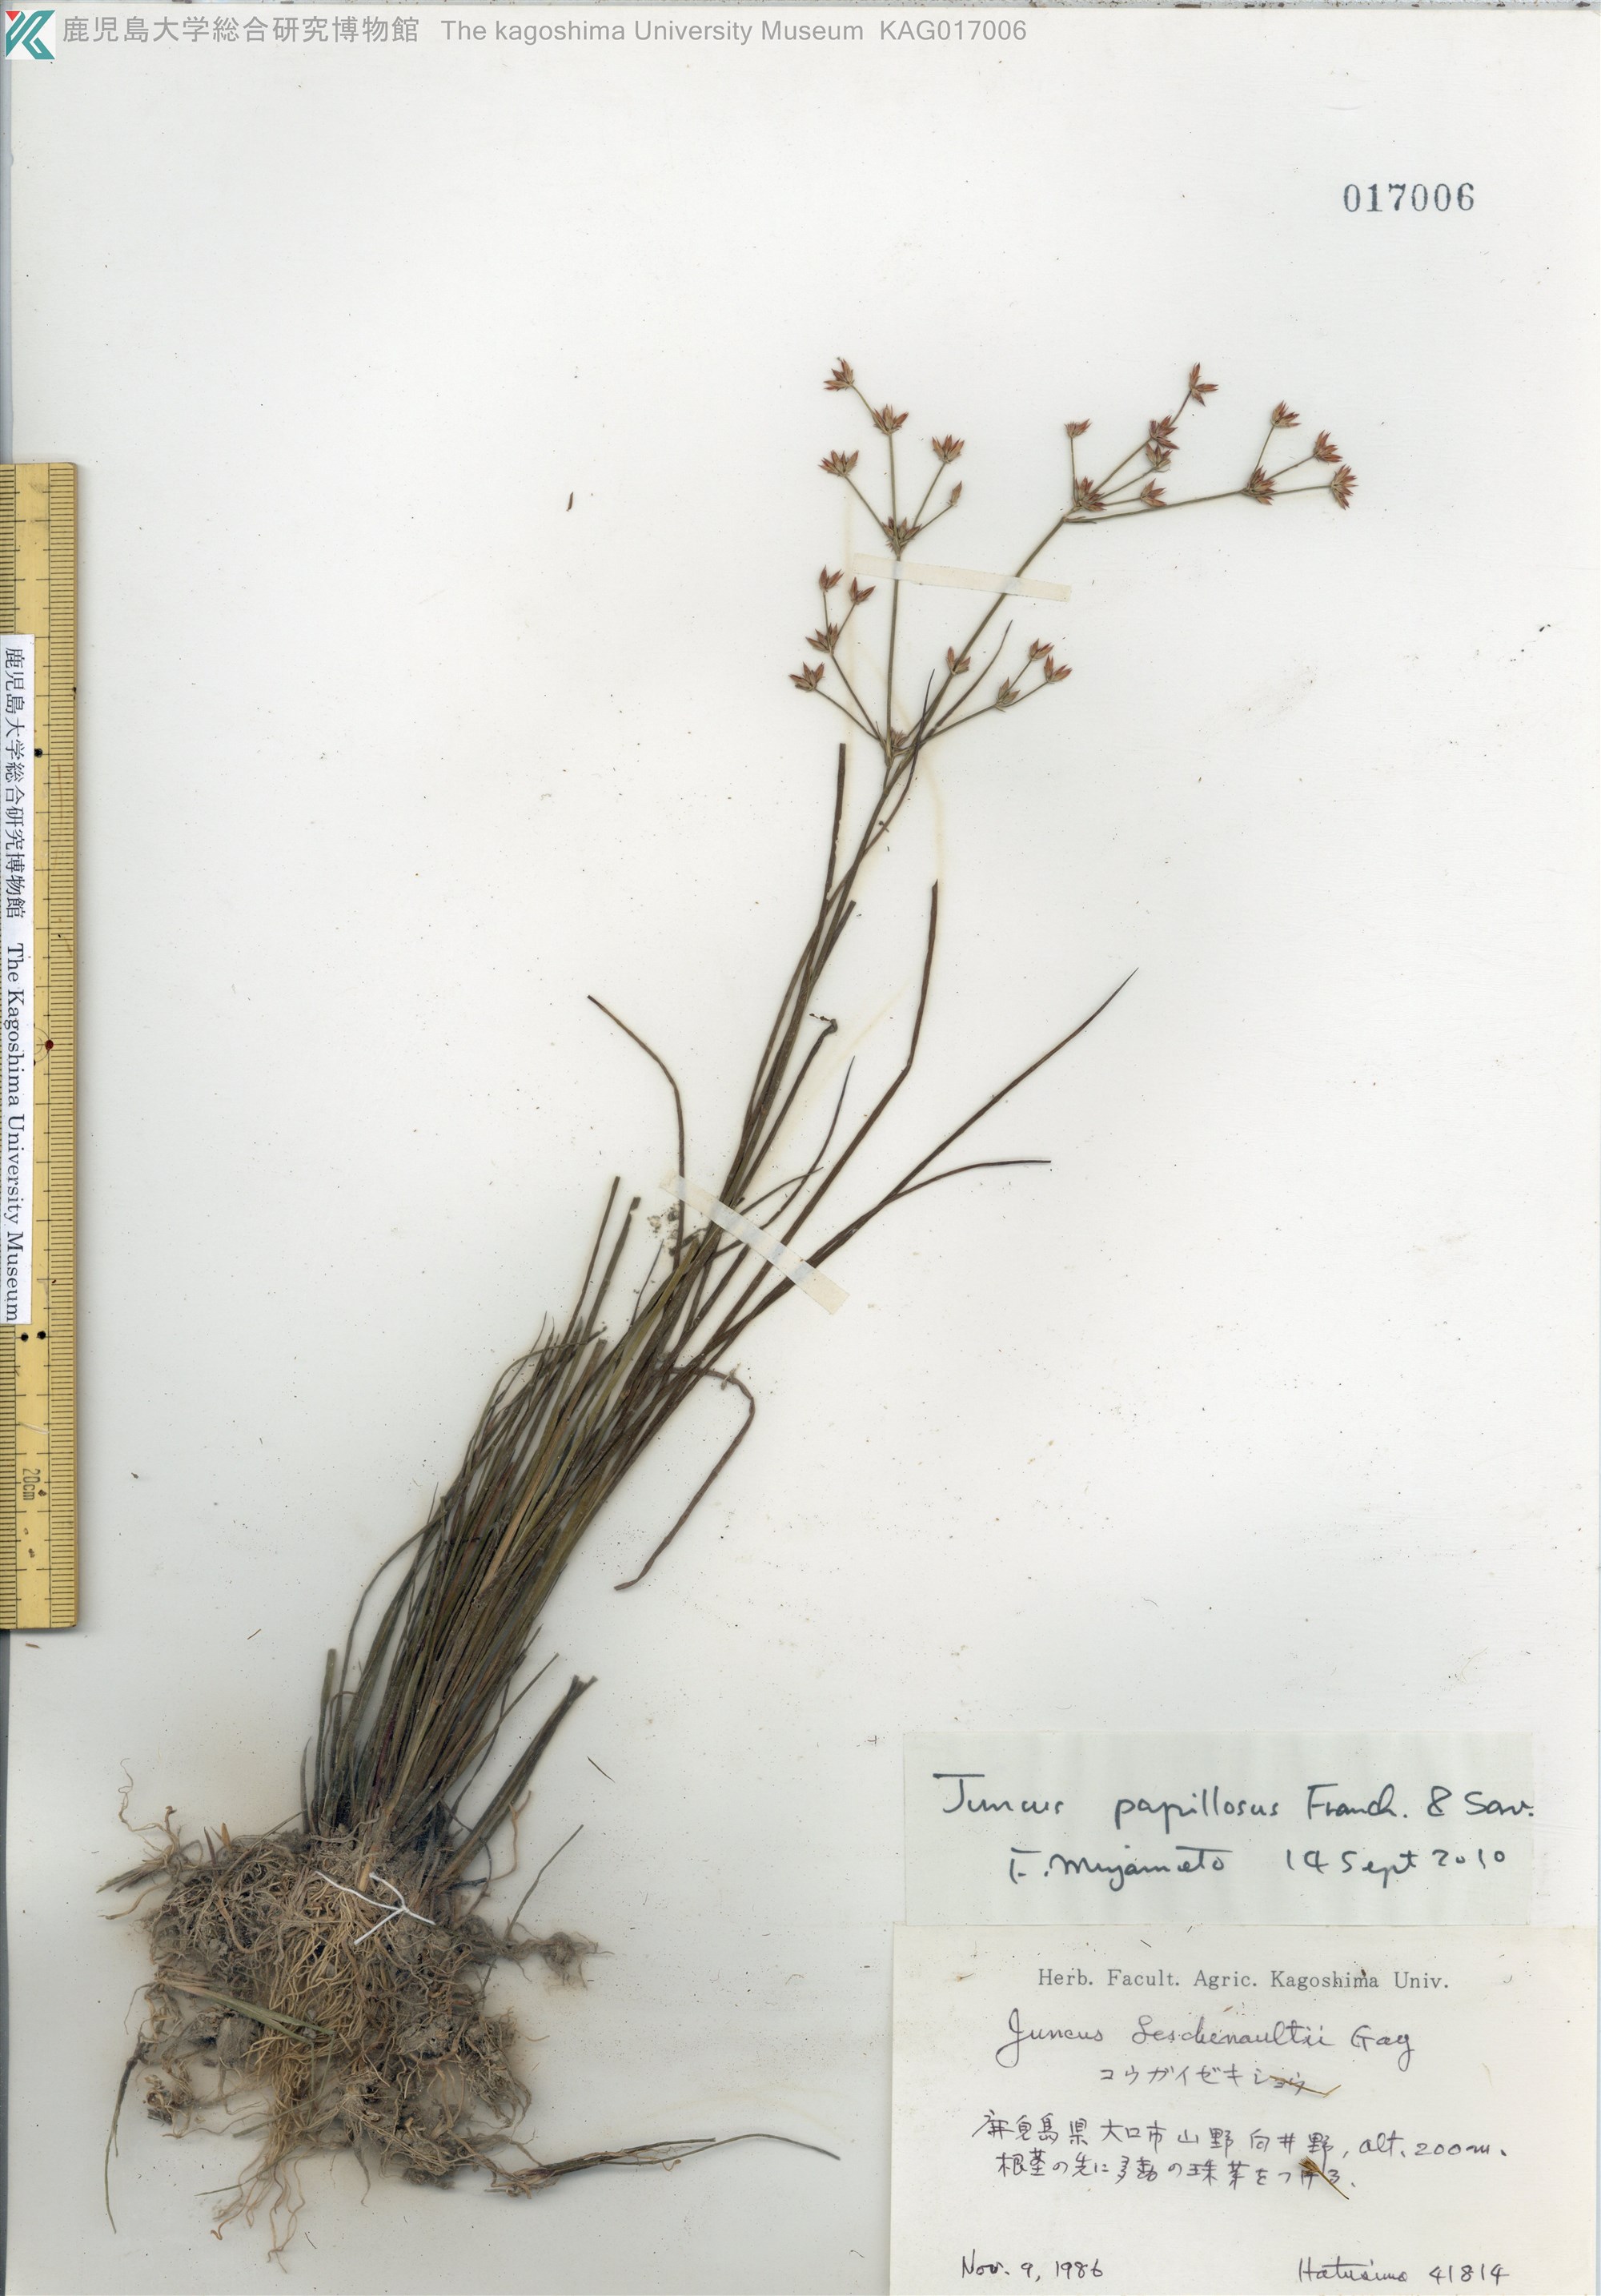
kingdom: Plantae
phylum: Tracheophyta
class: Liliopsida
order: Poales
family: Juncaceae
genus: Juncus
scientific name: Juncus papillosus
